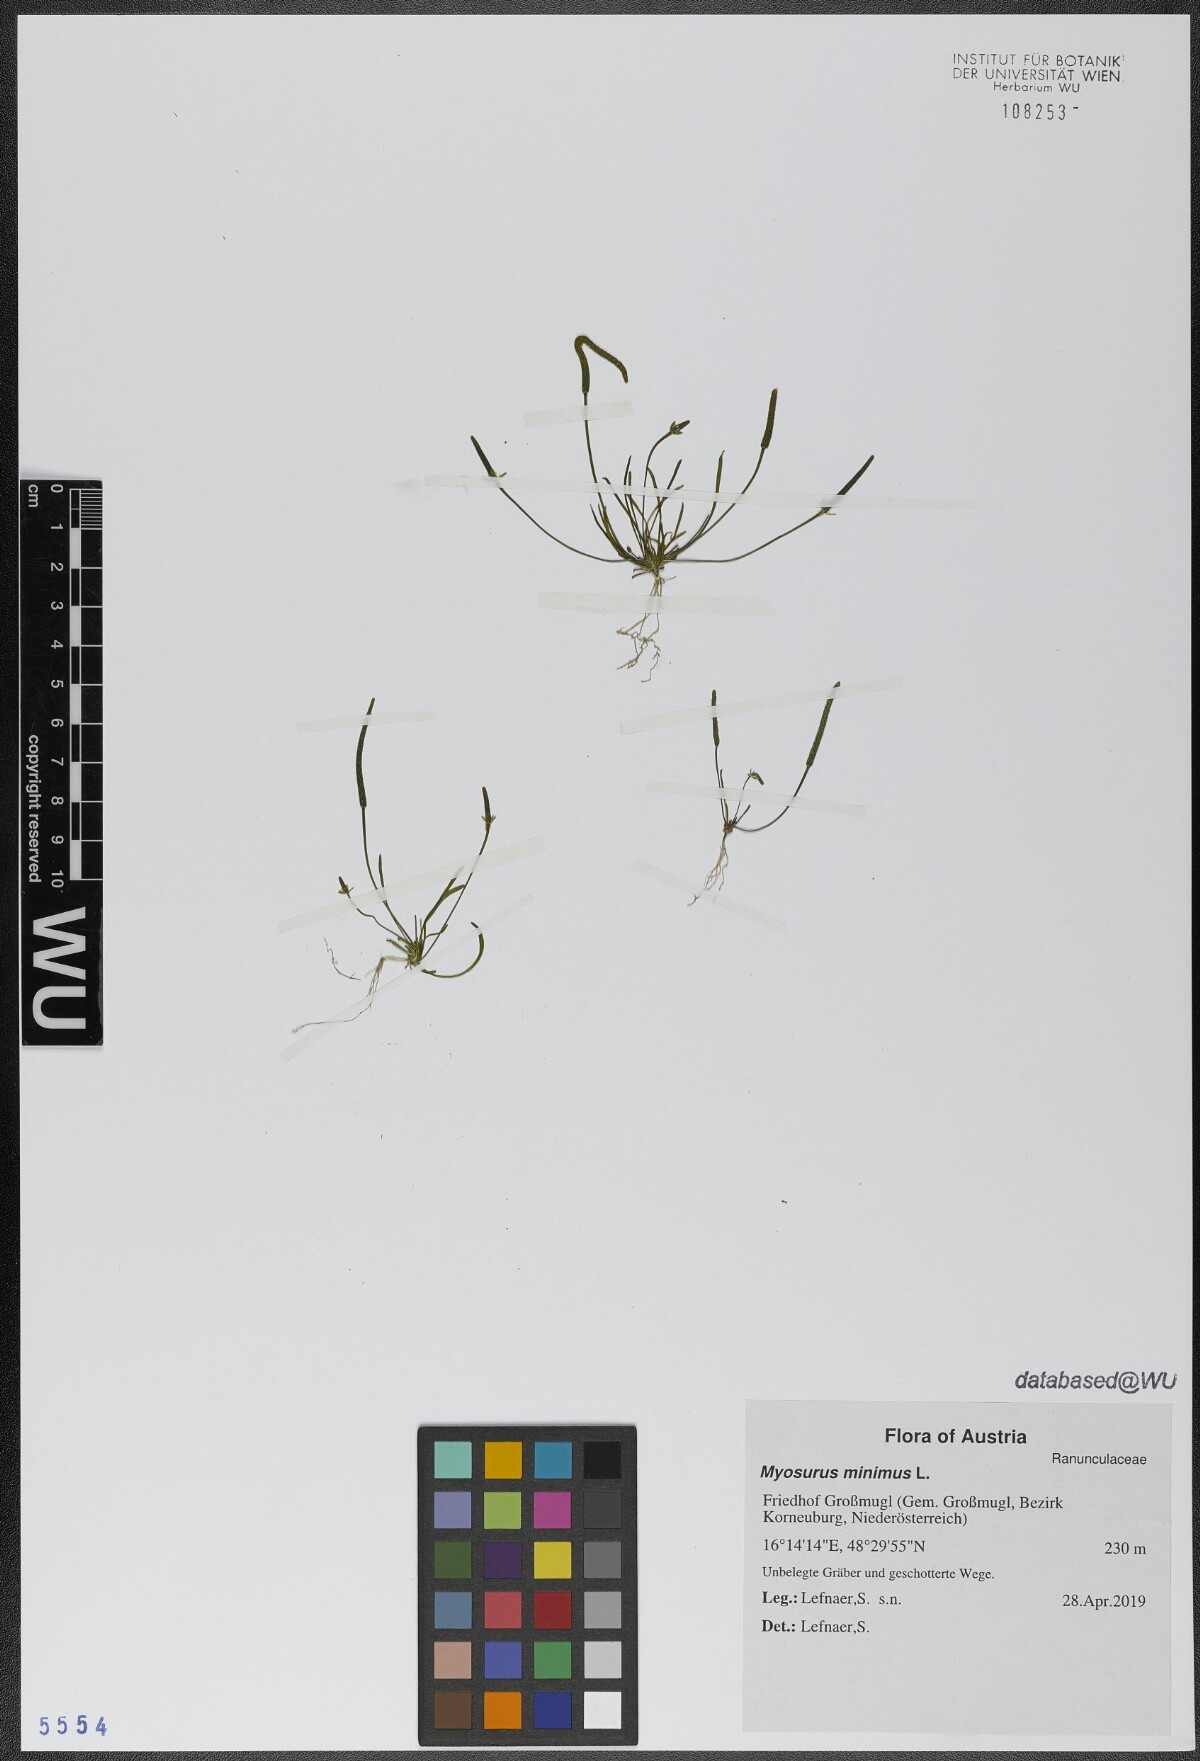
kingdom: Plantae
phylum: Tracheophyta
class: Magnoliopsida
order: Ranunculales
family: Ranunculaceae
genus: Myosurus
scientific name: Myosurus minimus
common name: Mousetail
